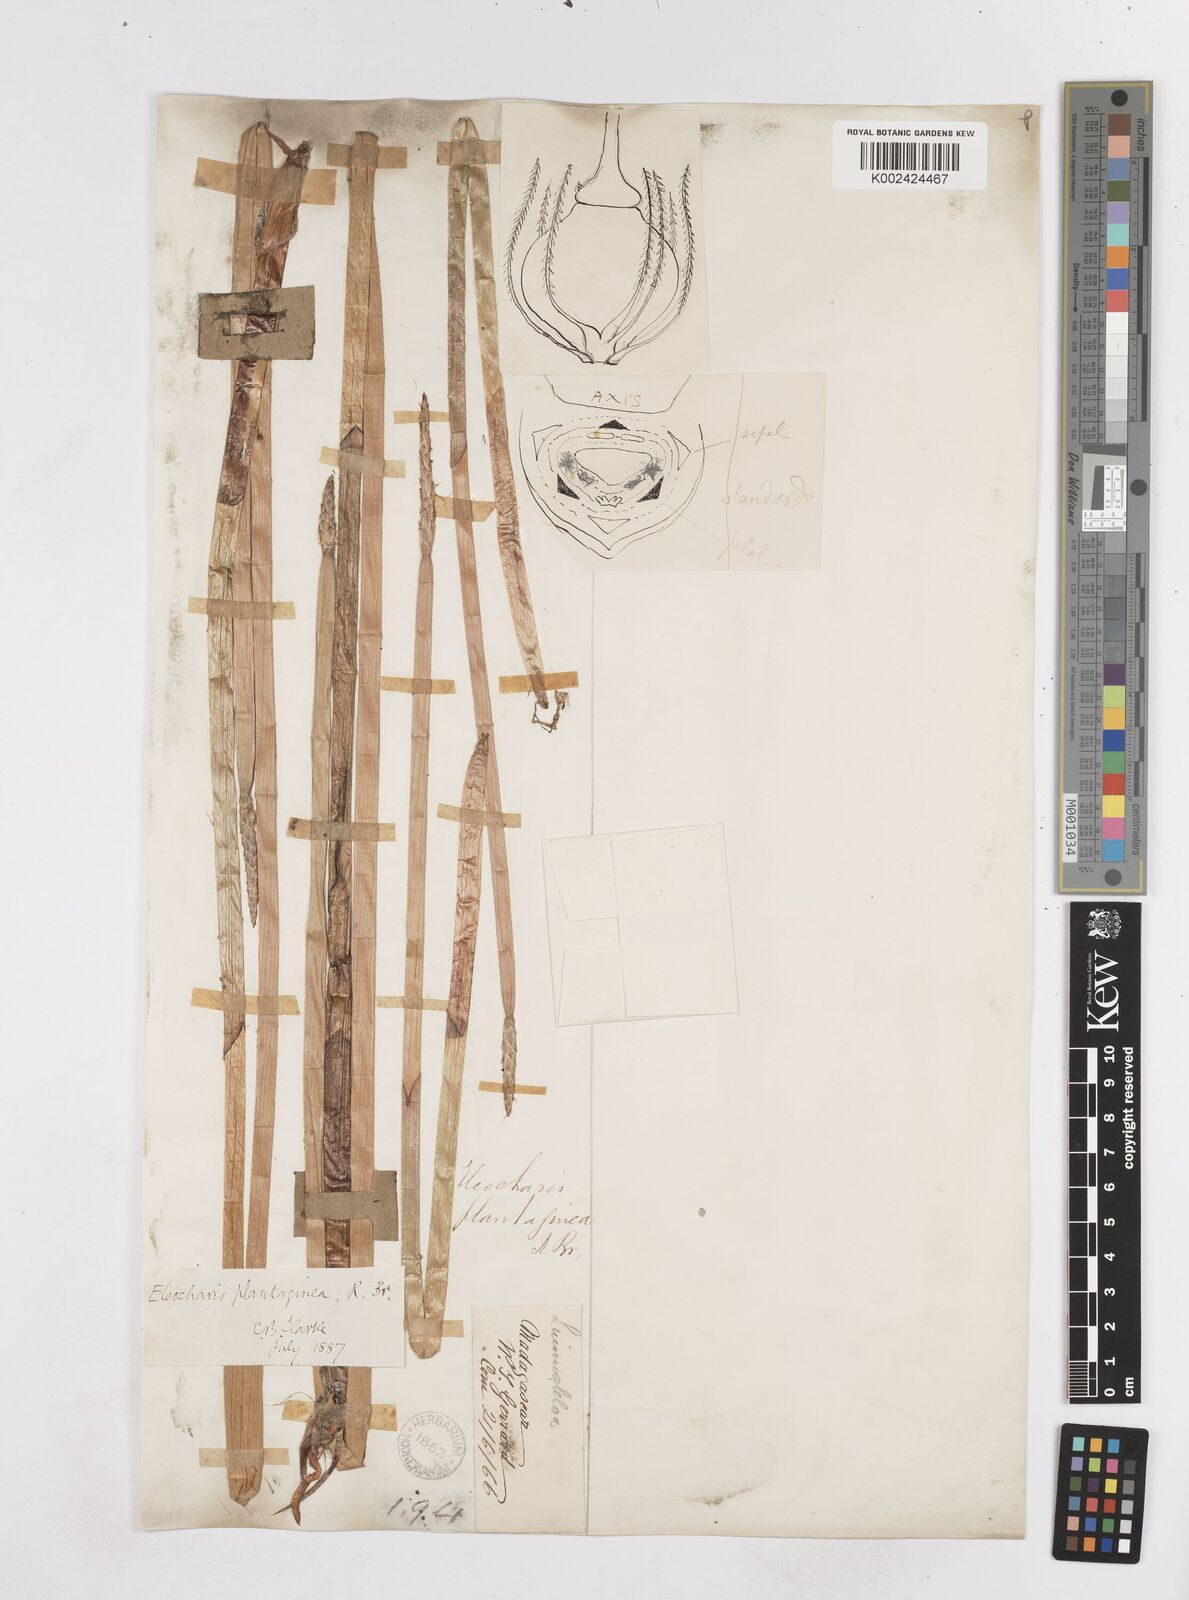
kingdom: Plantae
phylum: Tracheophyta
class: Liliopsida
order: Poales
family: Cyperaceae
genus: Eleocharis
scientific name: Eleocharis dulcis
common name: Chinese water chestnut
